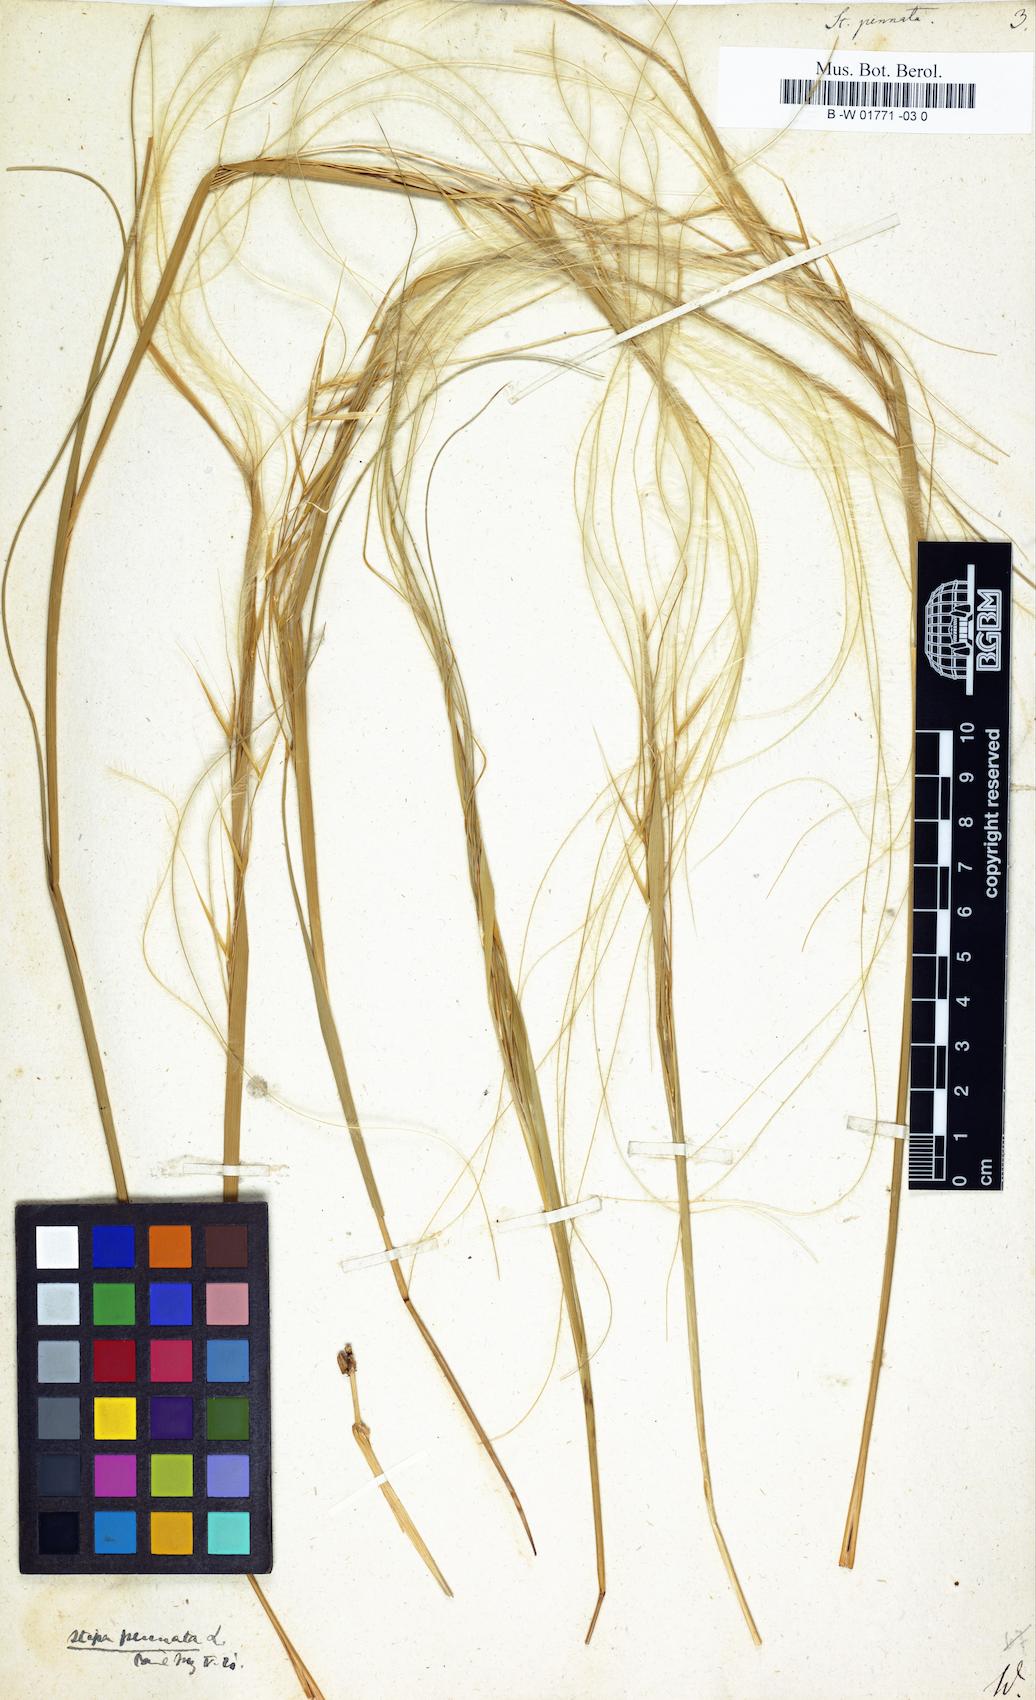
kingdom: Plantae
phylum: Tracheophyta
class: Liliopsida
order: Poales
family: Poaceae
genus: Stipa
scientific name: Stipa pennata
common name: European feather grass
